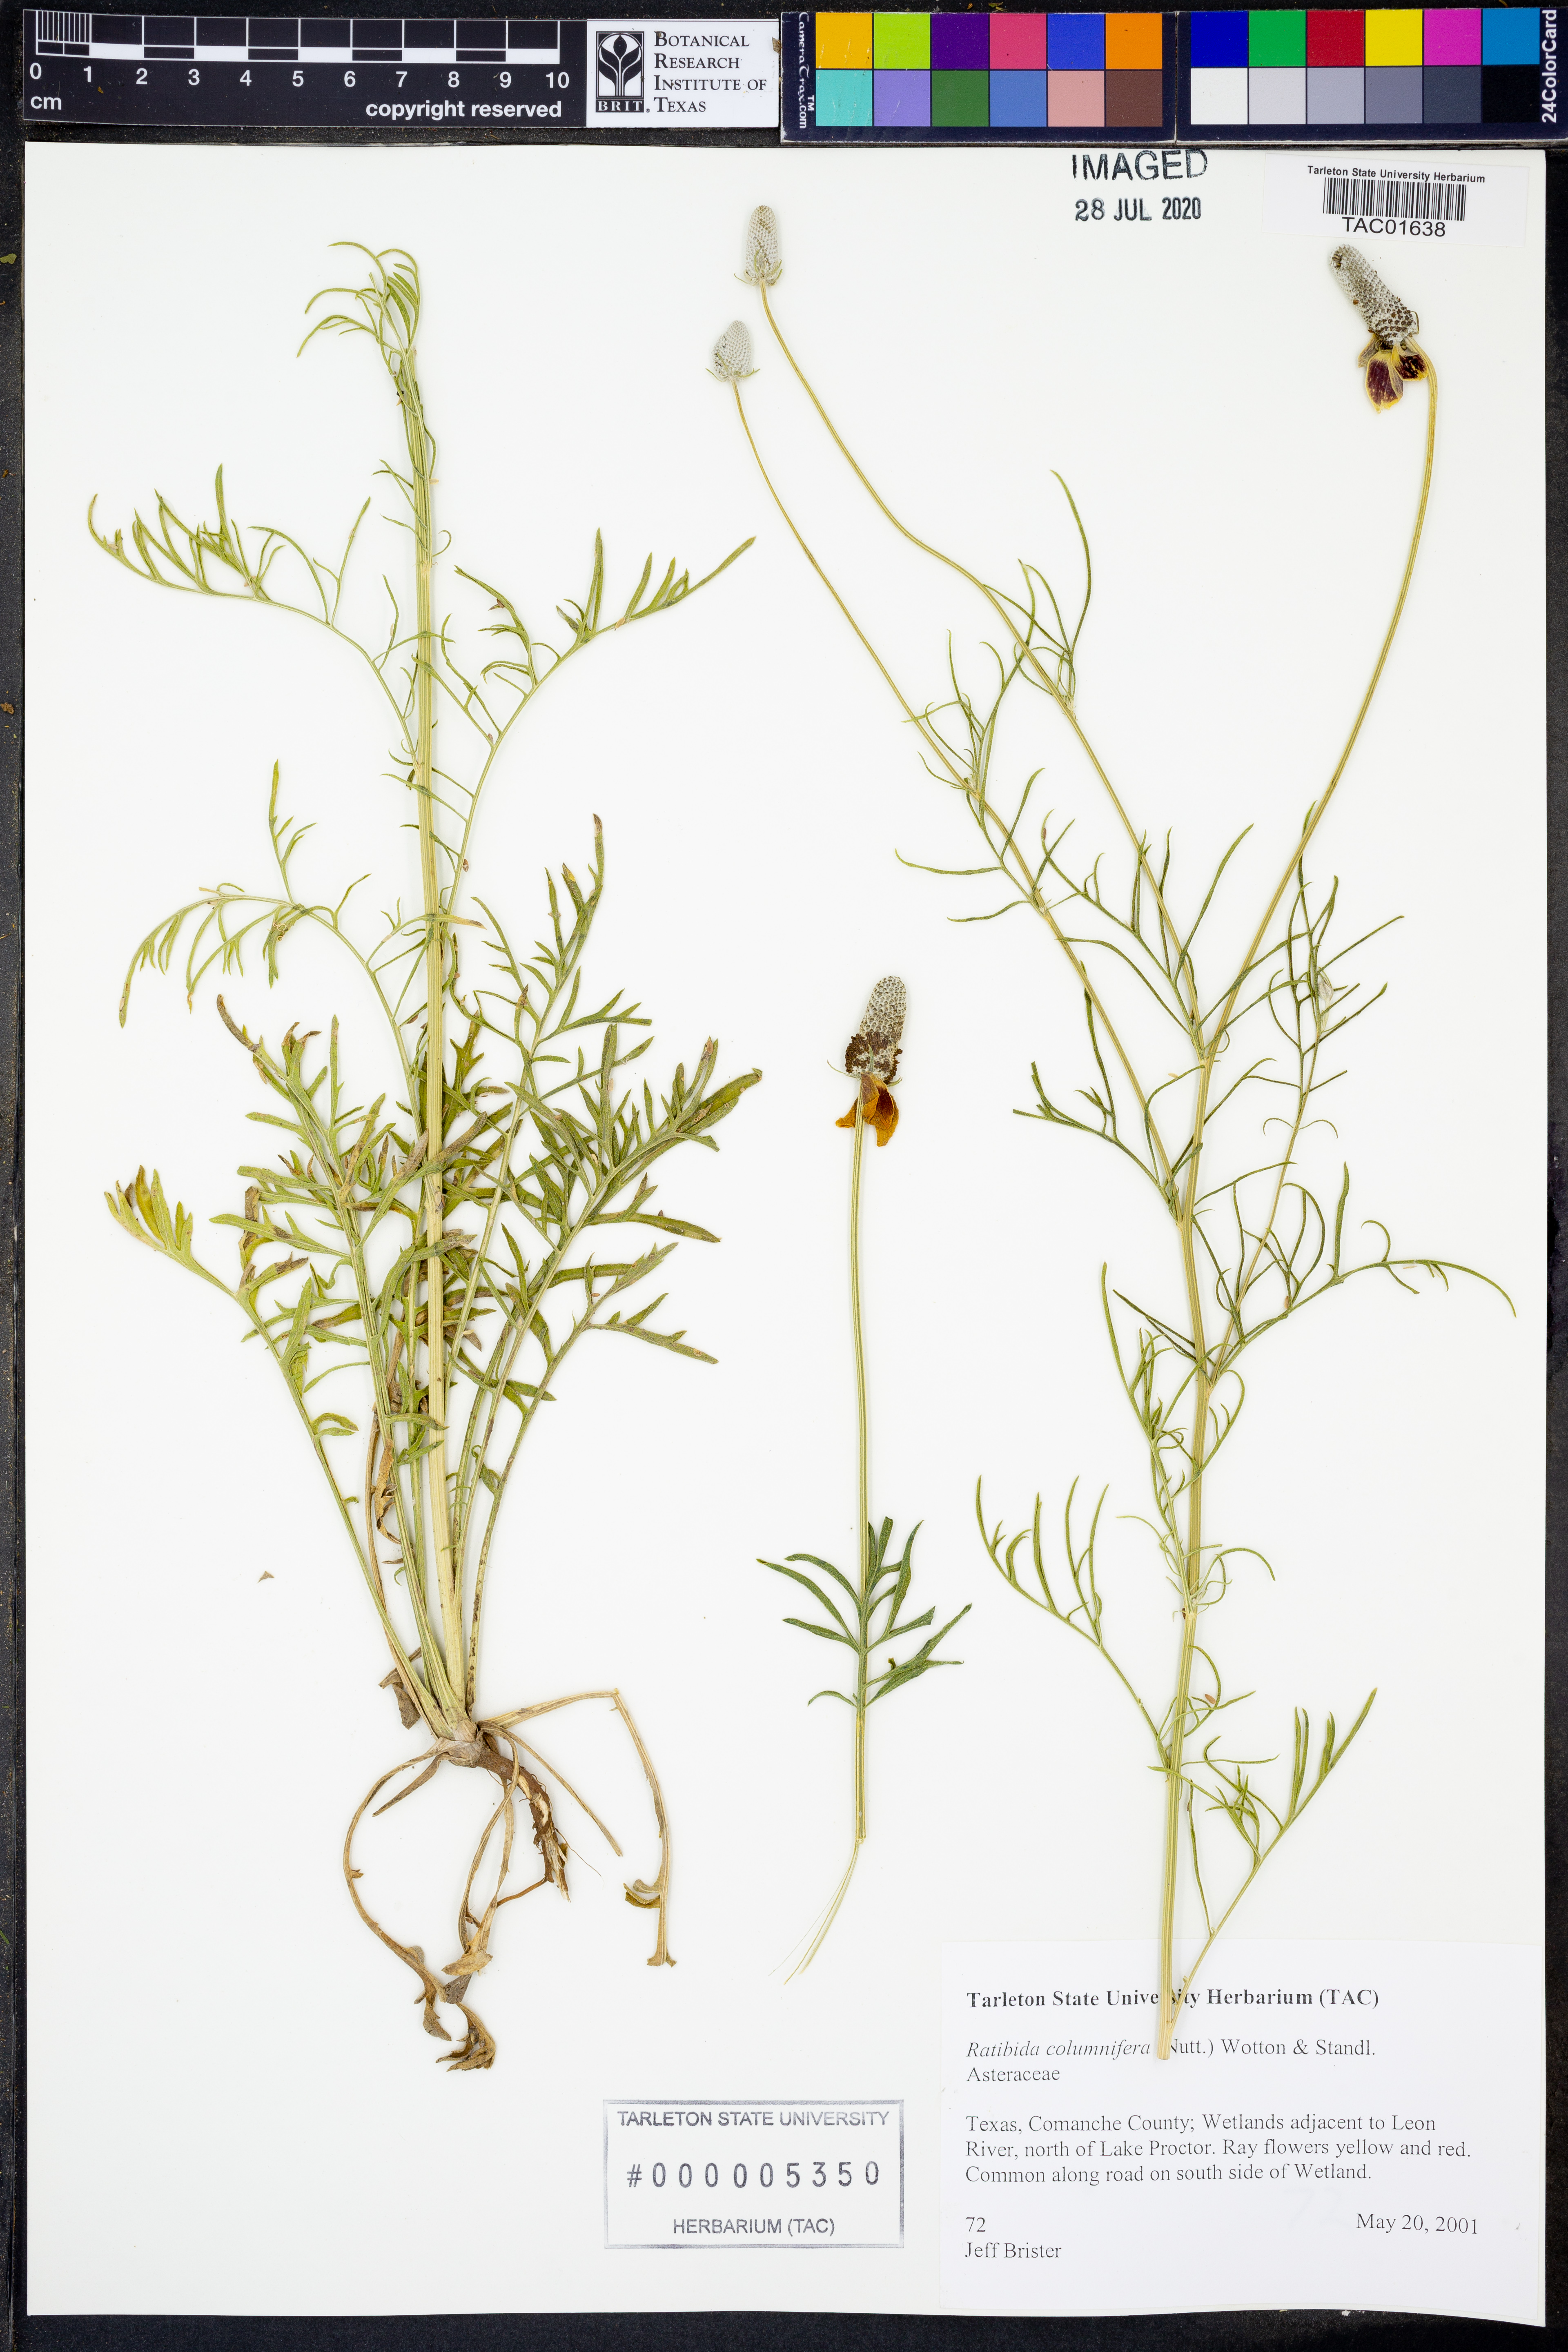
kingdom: Plantae
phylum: Tracheophyta
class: Magnoliopsida
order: Asterales
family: Asteraceae
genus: Ratibida
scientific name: Ratibida columnifera
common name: Prairie coneflower
